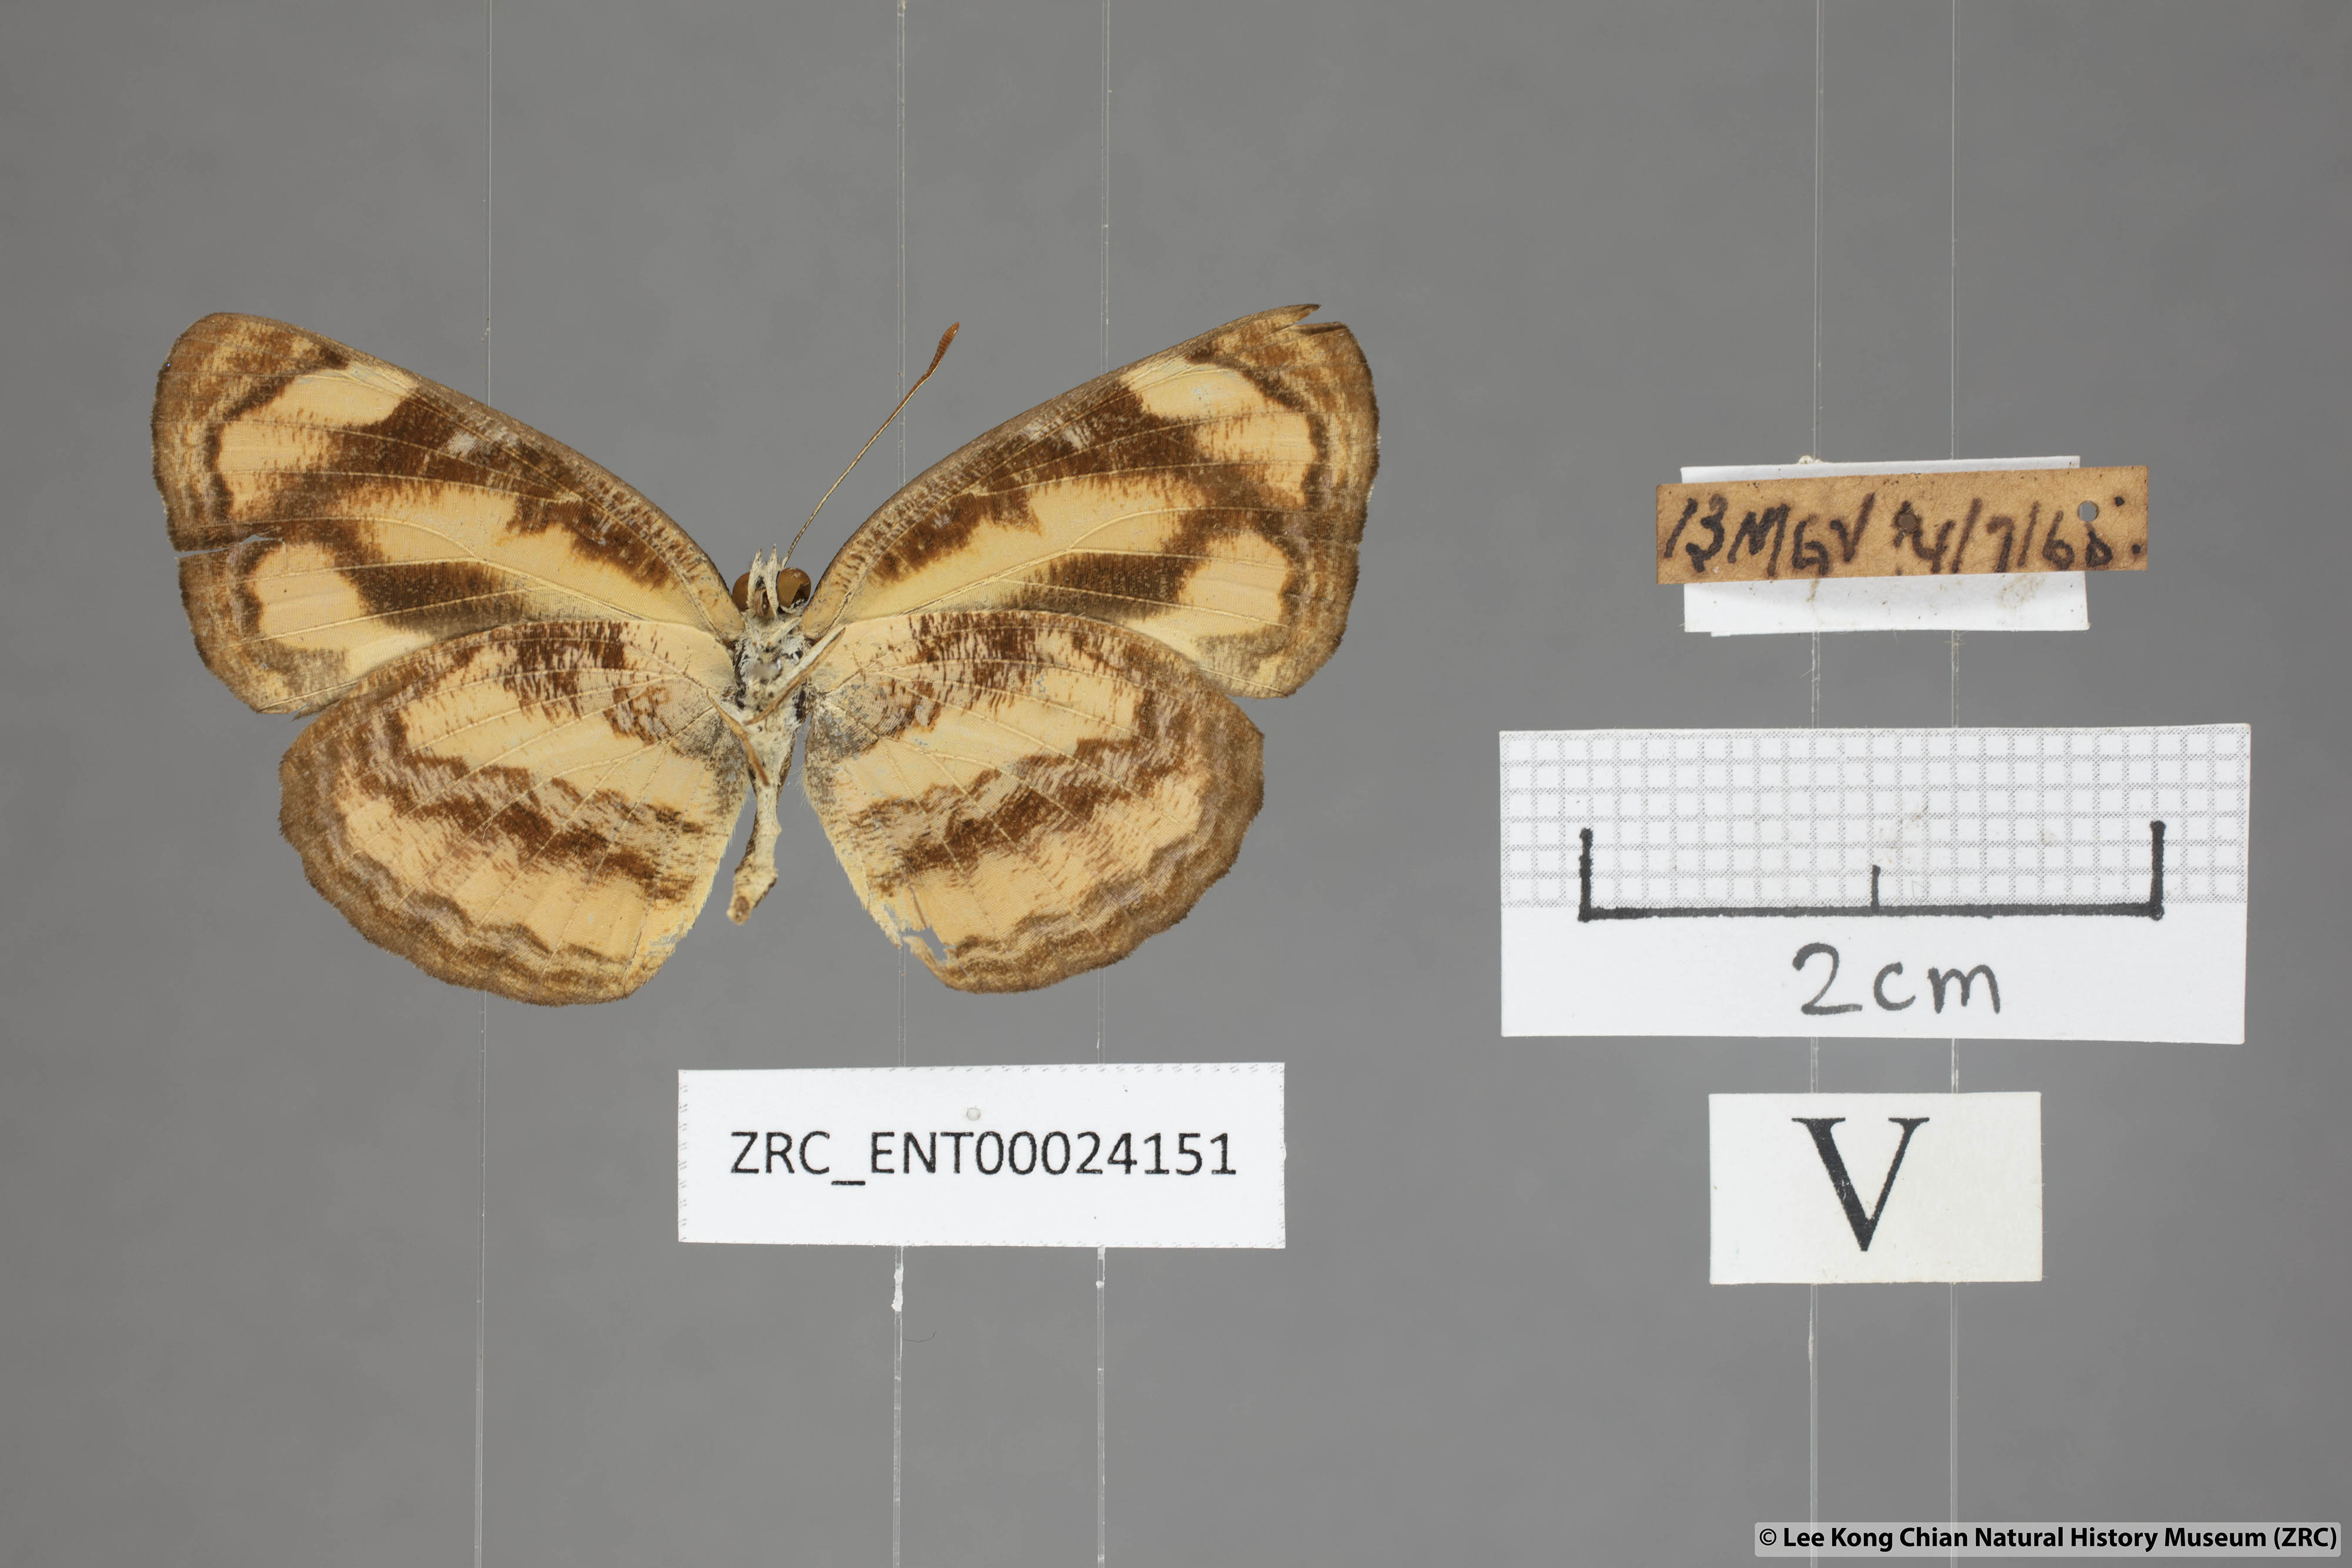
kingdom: Animalia
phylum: Arthropoda
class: Insecta
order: Lepidoptera
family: Nymphalidae
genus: Pantoporia
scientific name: Pantoporia sandaka
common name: Extra lascar
